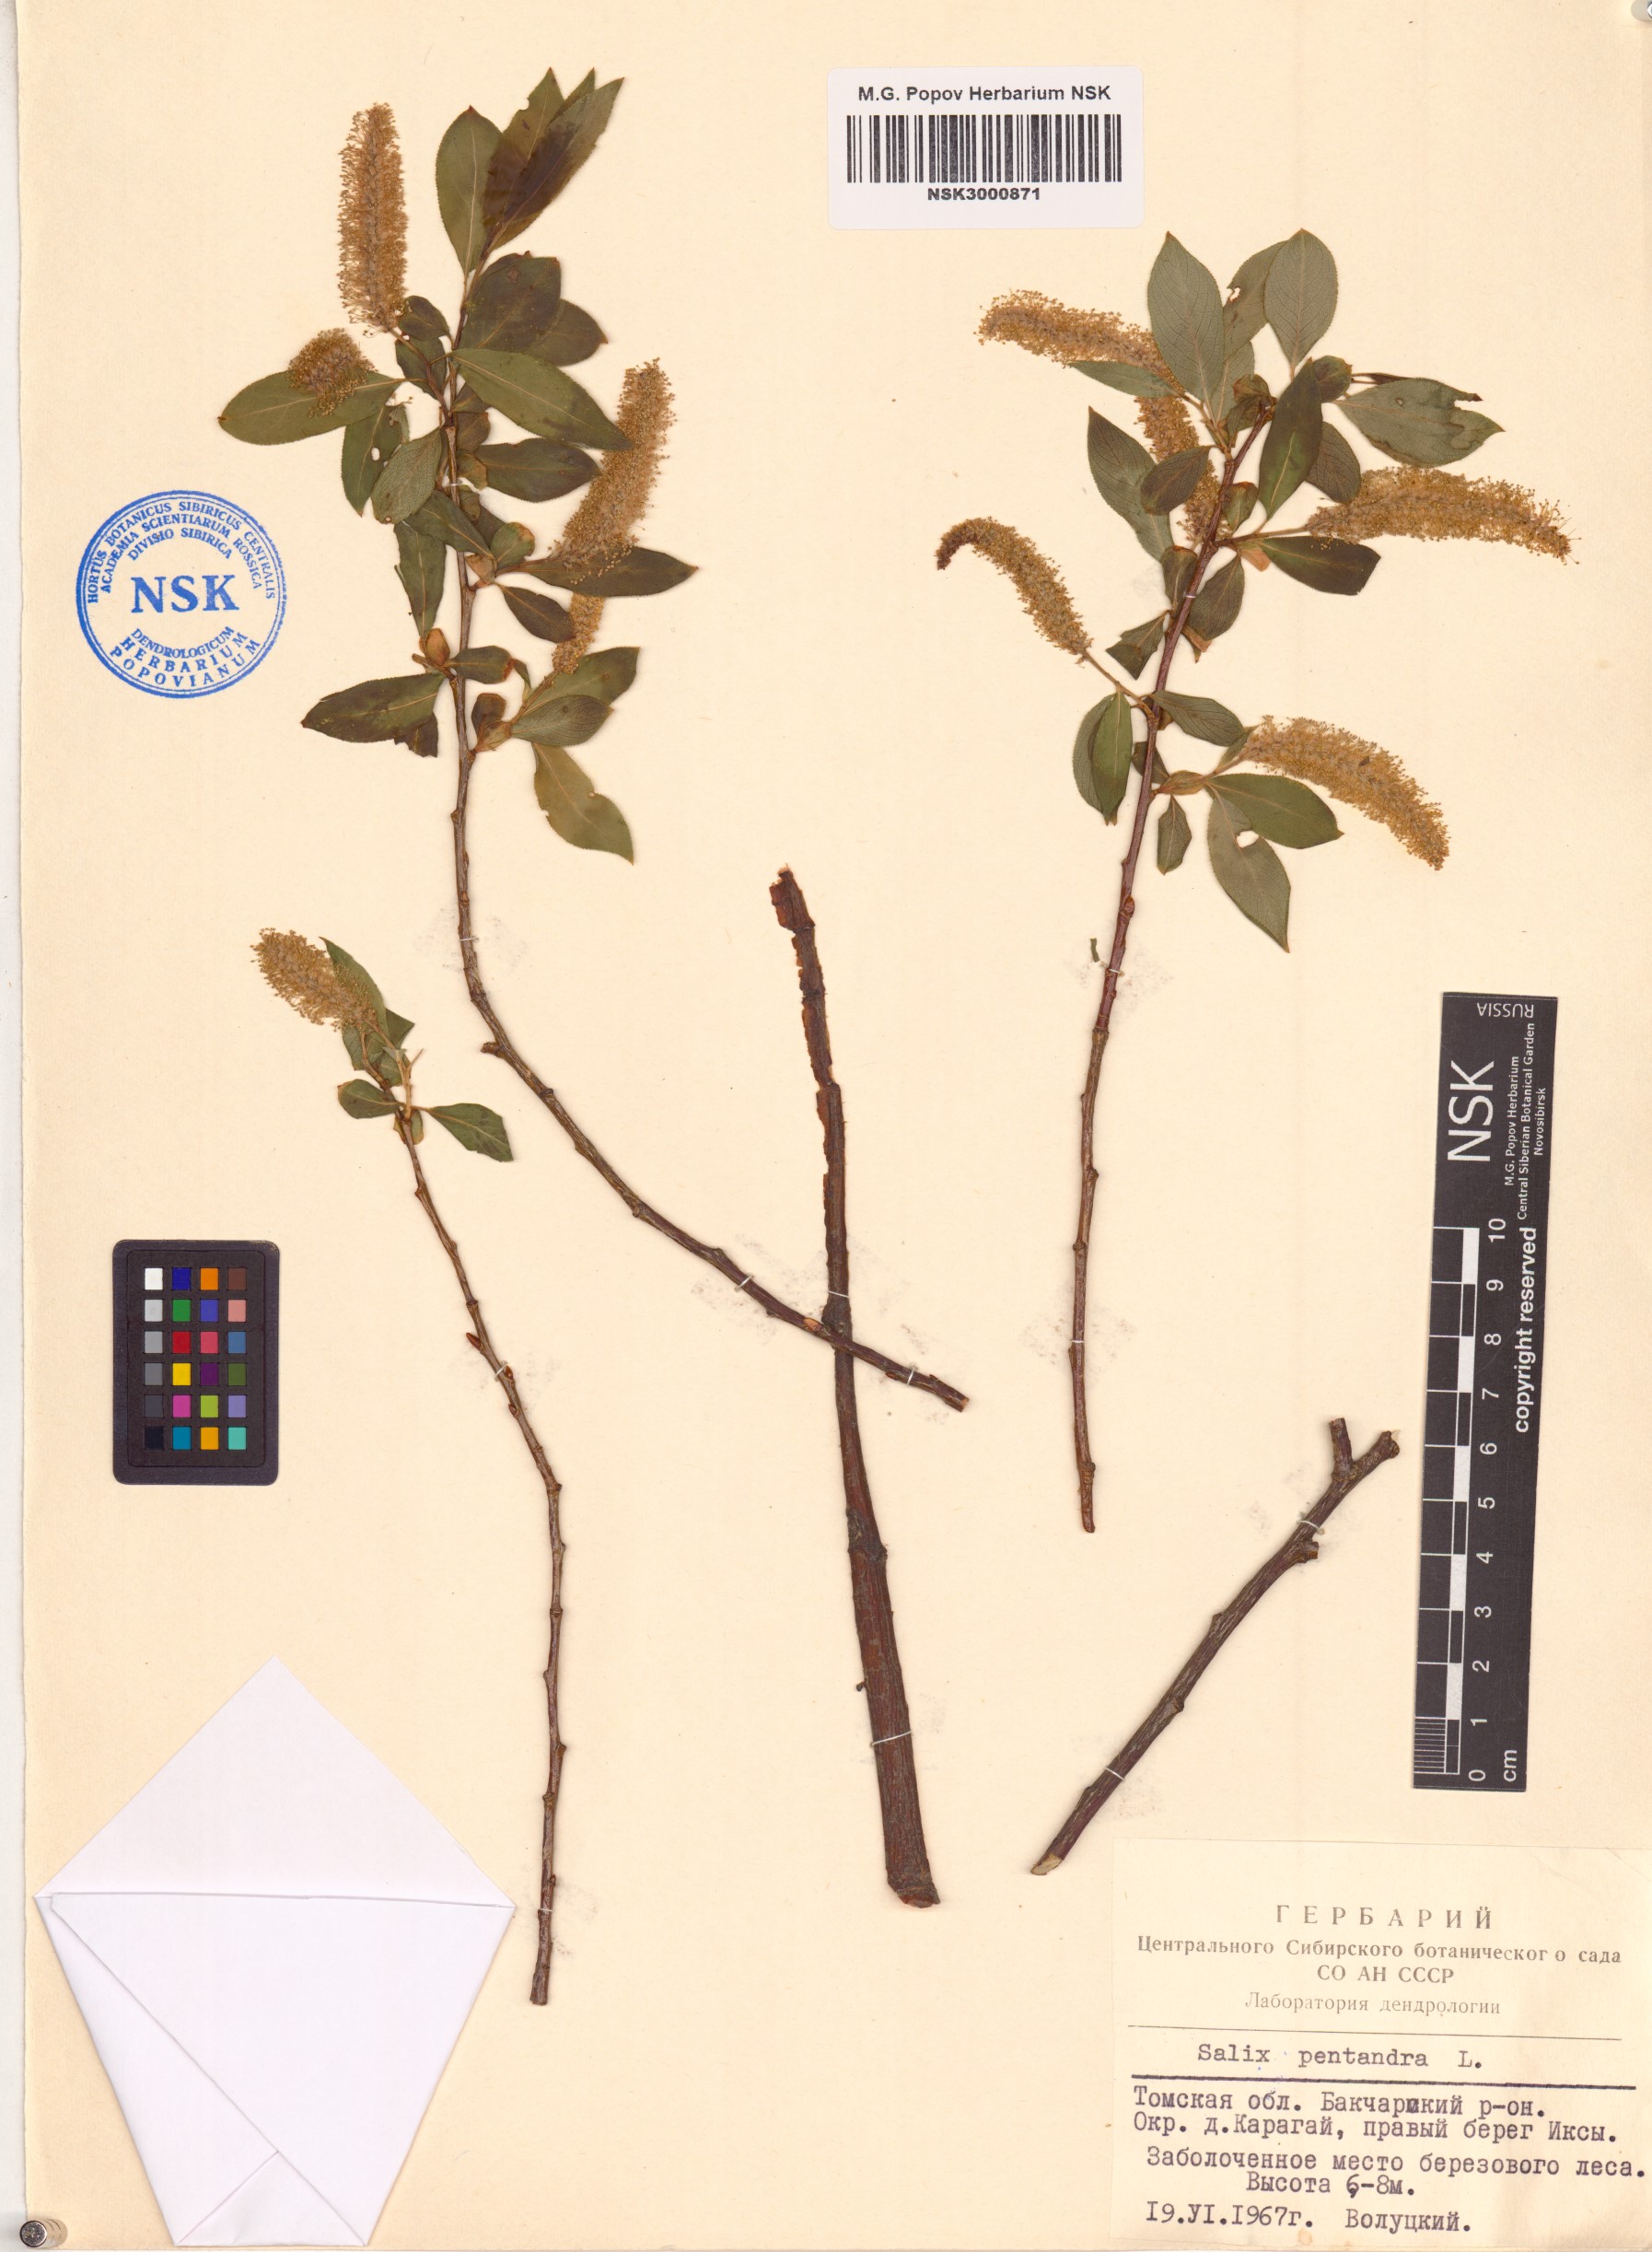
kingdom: Plantae
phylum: Tracheophyta
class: Magnoliopsida
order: Malpighiales
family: Salicaceae
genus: Salix
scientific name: Salix pentandra
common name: Bay willow
